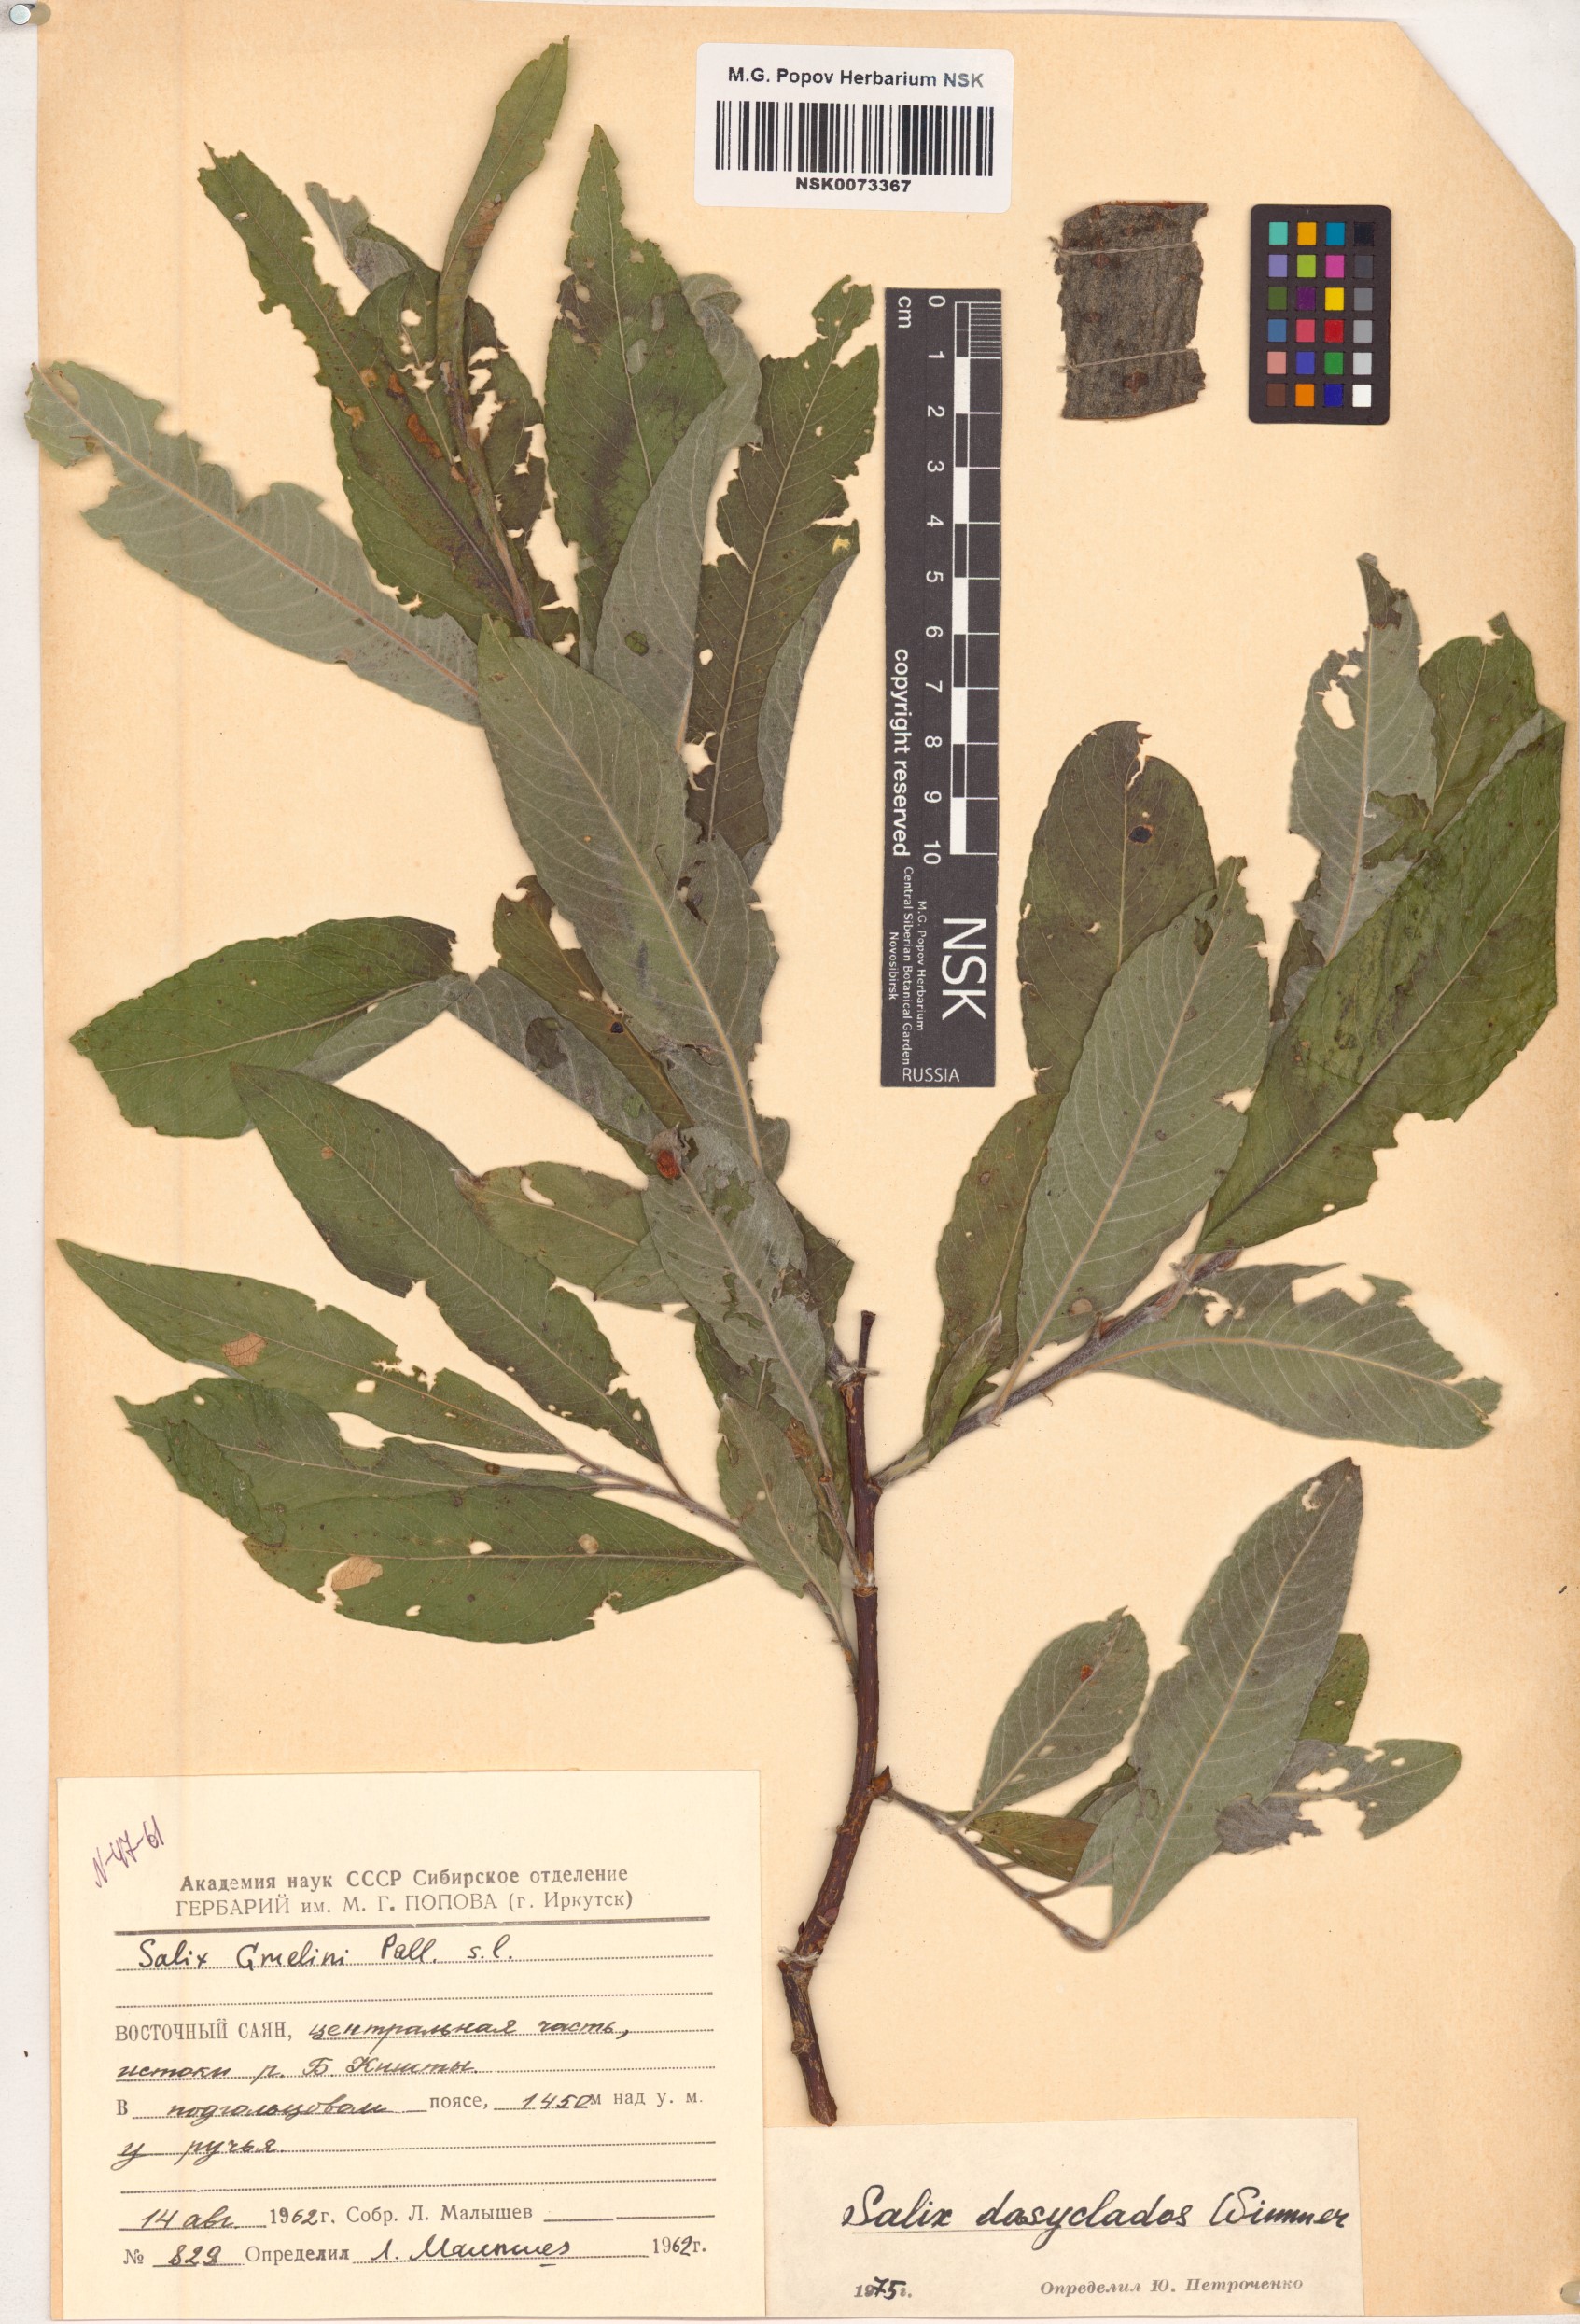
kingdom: Plantae
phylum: Tracheophyta
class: Magnoliopsida
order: Malpighiales
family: Salicaceae
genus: Salix
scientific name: Salix gmelinii
